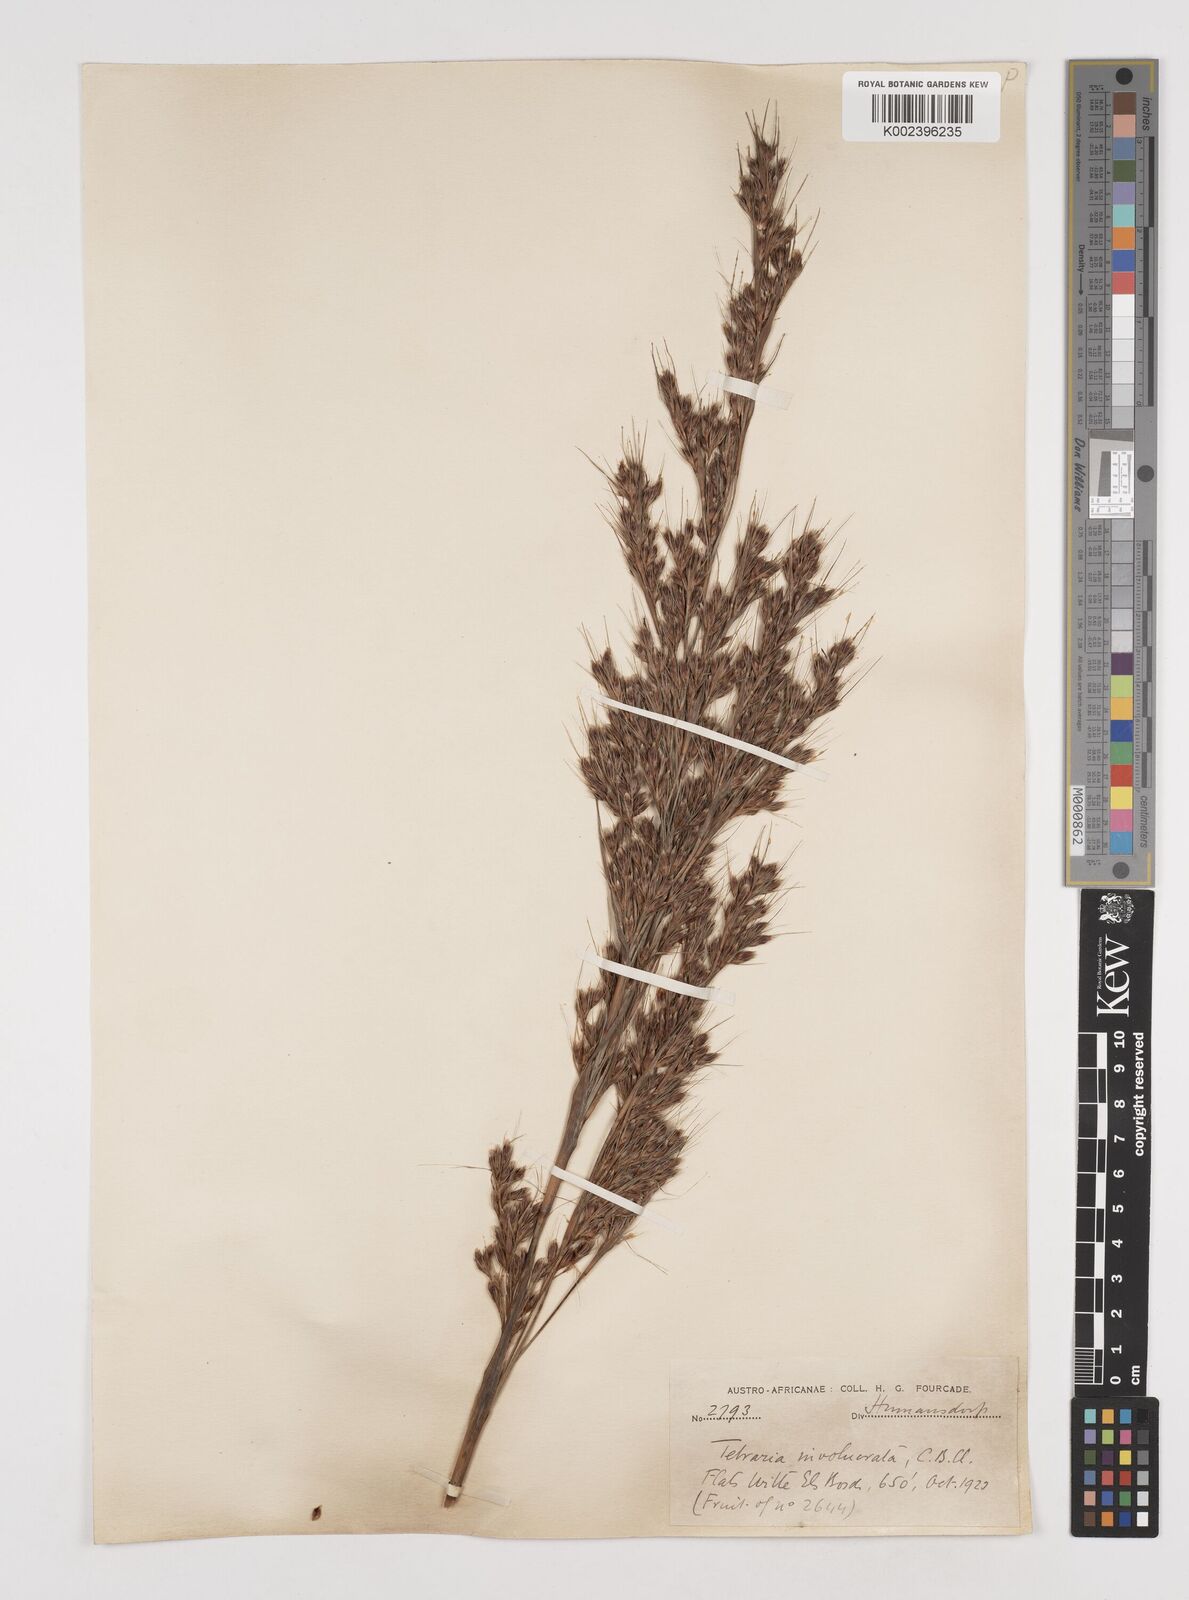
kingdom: Plantae
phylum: Tracheophyta
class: Liliopsida
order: Poales
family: Cyperaceae
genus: Tetraria
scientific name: Tetraria involucrata
